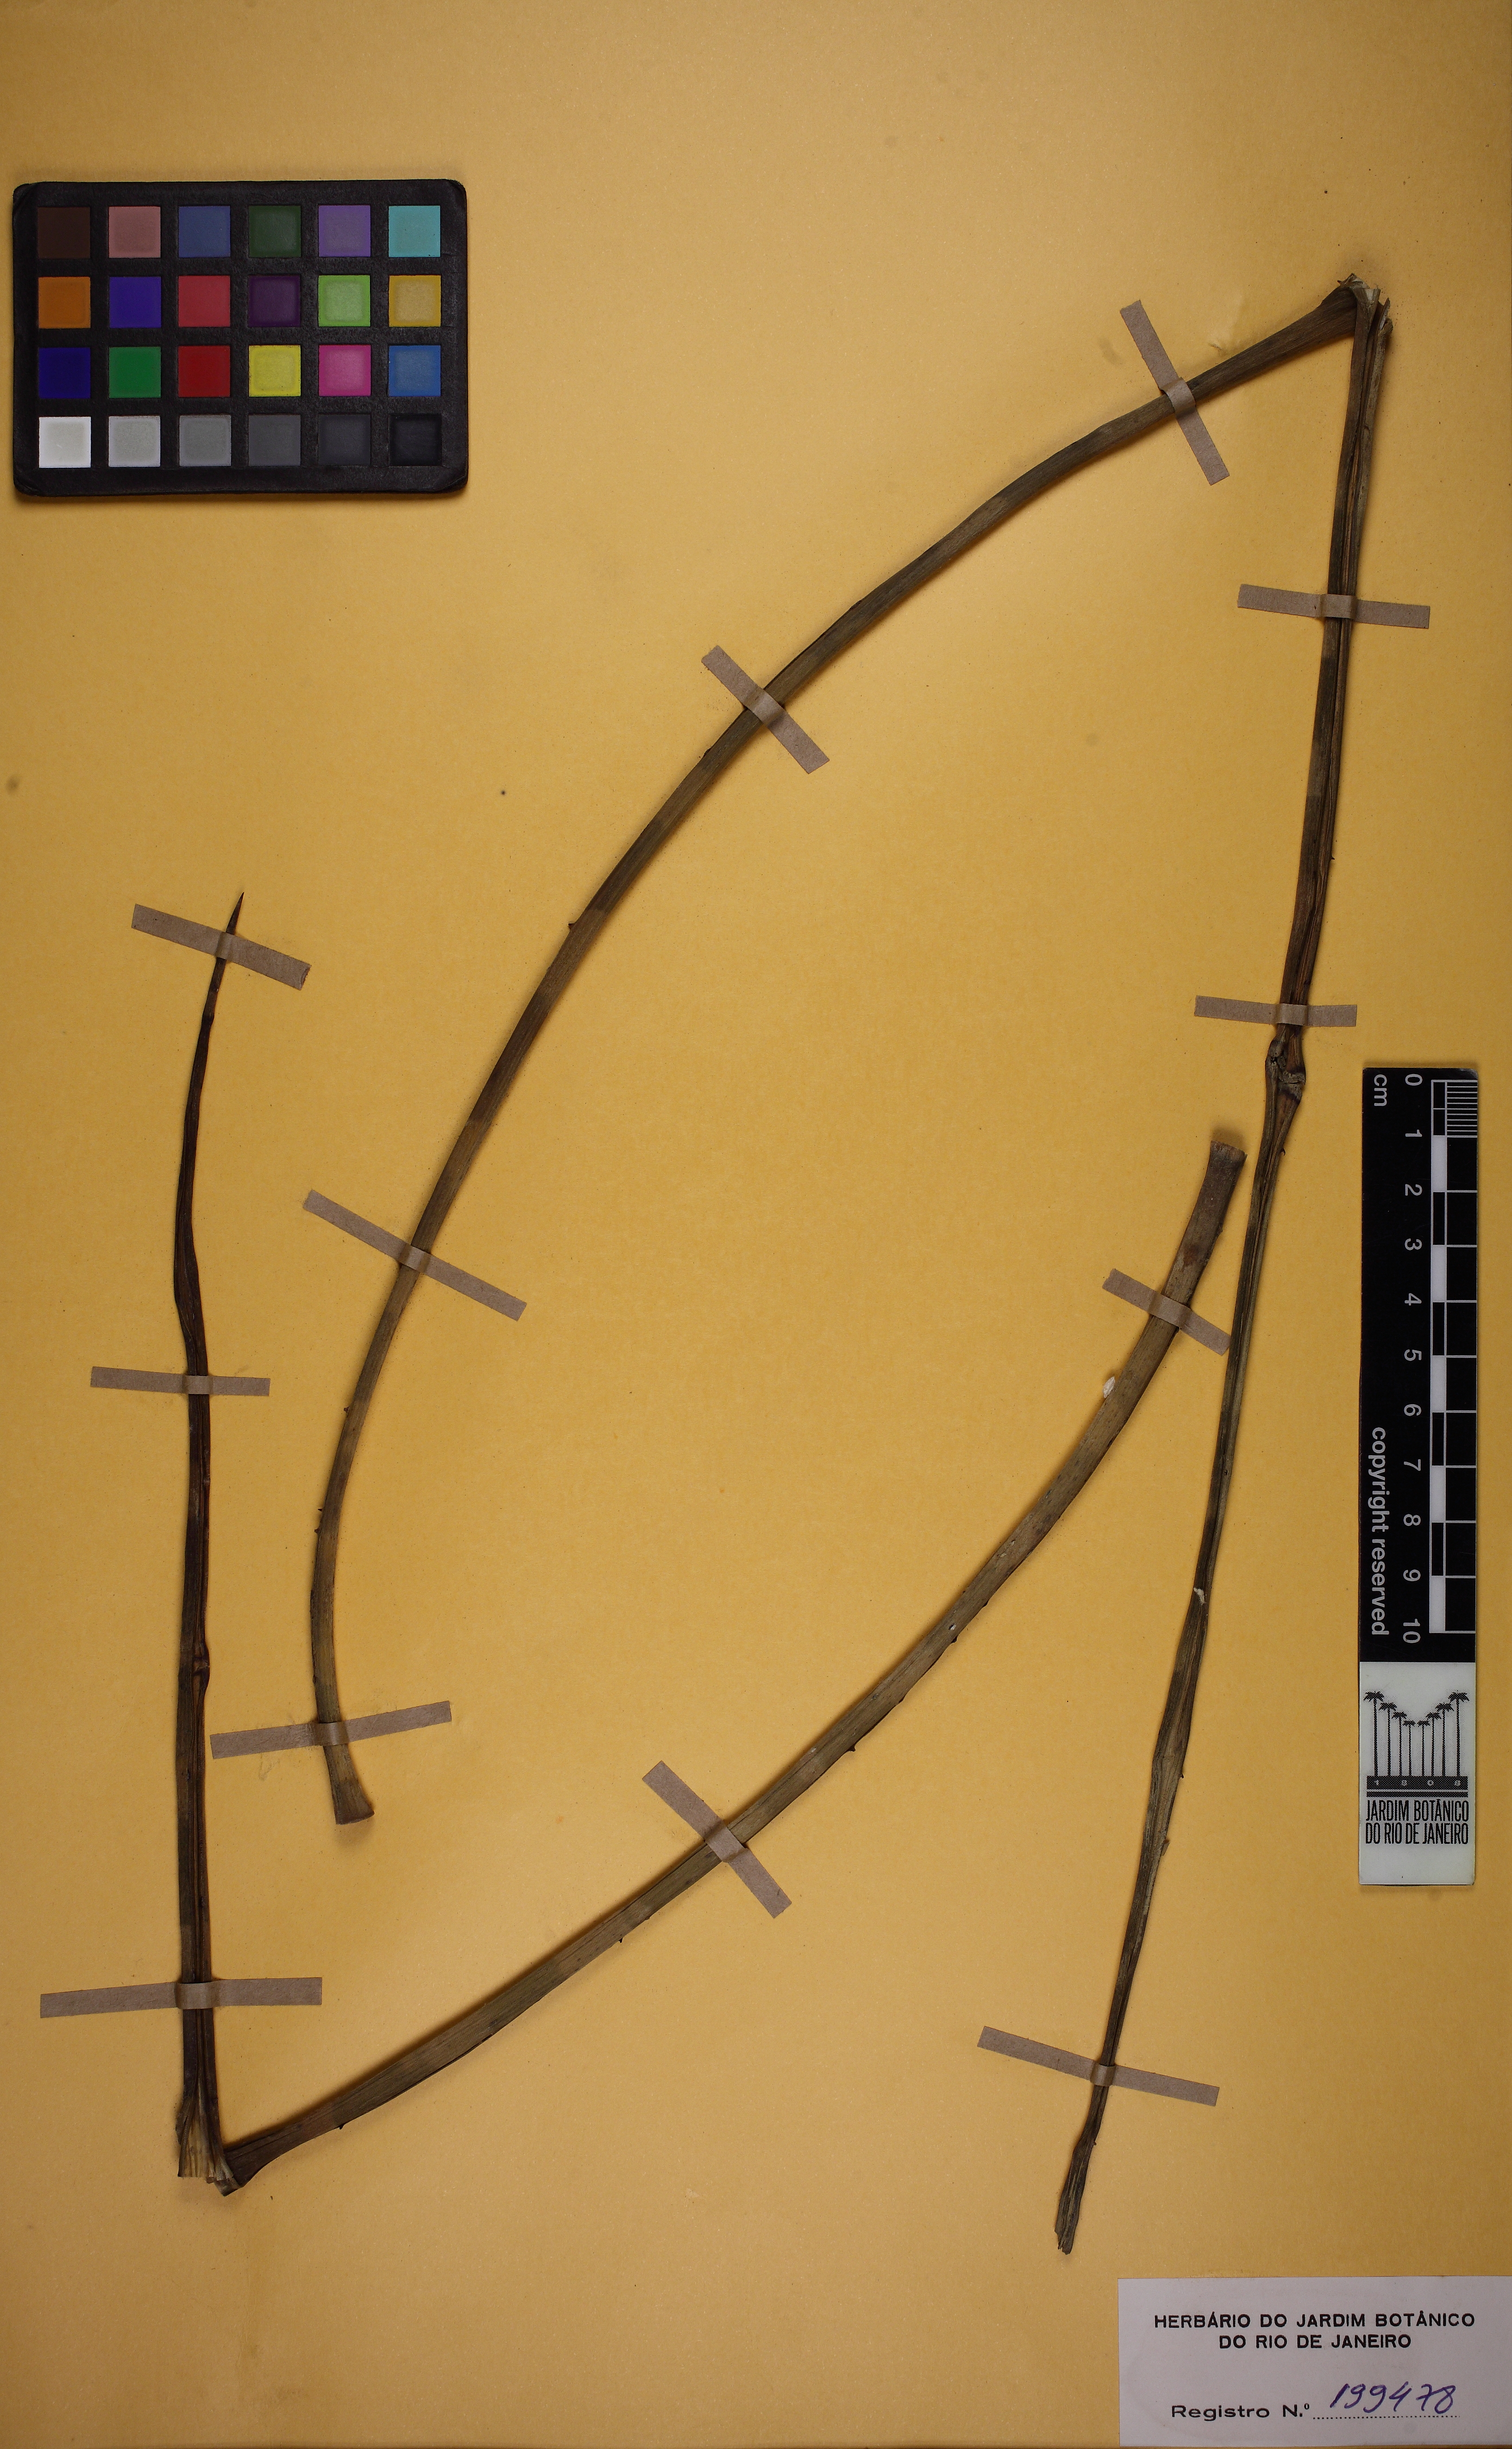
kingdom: Plantae
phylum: Tracheophyta
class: Liliopsida
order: Poales
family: Bromeliaceae
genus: Neoglaziovia
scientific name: Neoglaziovia variegata
